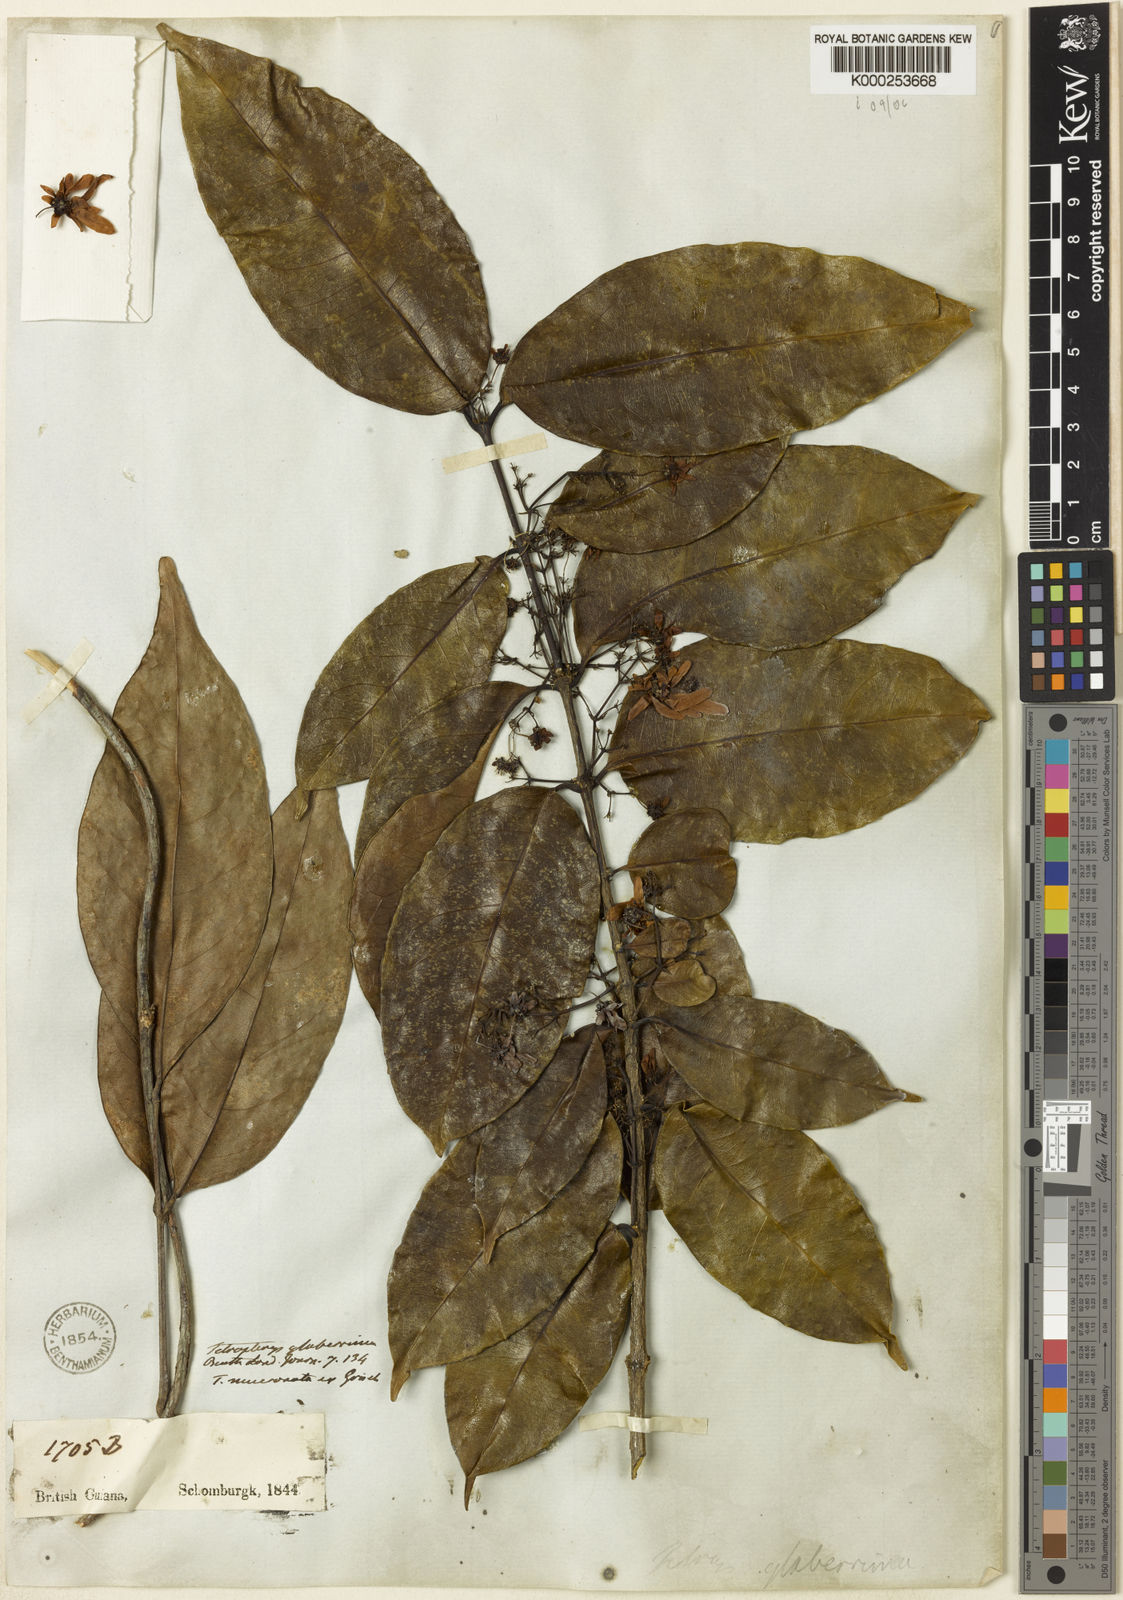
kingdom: Plantae
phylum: Tracheophyta
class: Magnoliopsida
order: Malpighiales
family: Malpighiaceae
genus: Tetrapterys
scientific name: Tetrapterys mucronata
